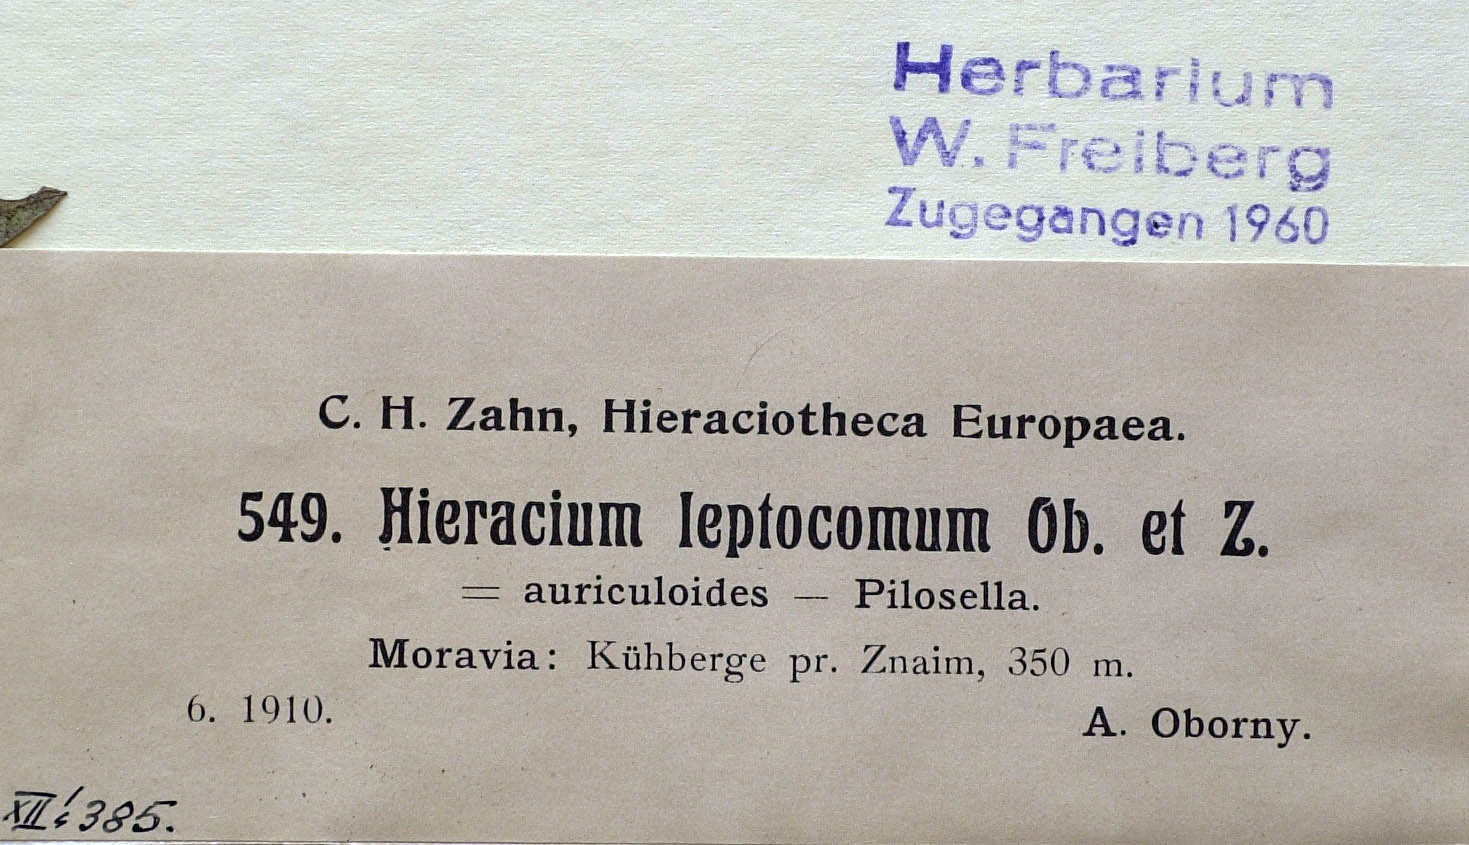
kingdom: Plantae
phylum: Tracheophyta
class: Magnoliopsida
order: Asterales
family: Asteraceae
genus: Pilosella
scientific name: Pilosella acutifolia
